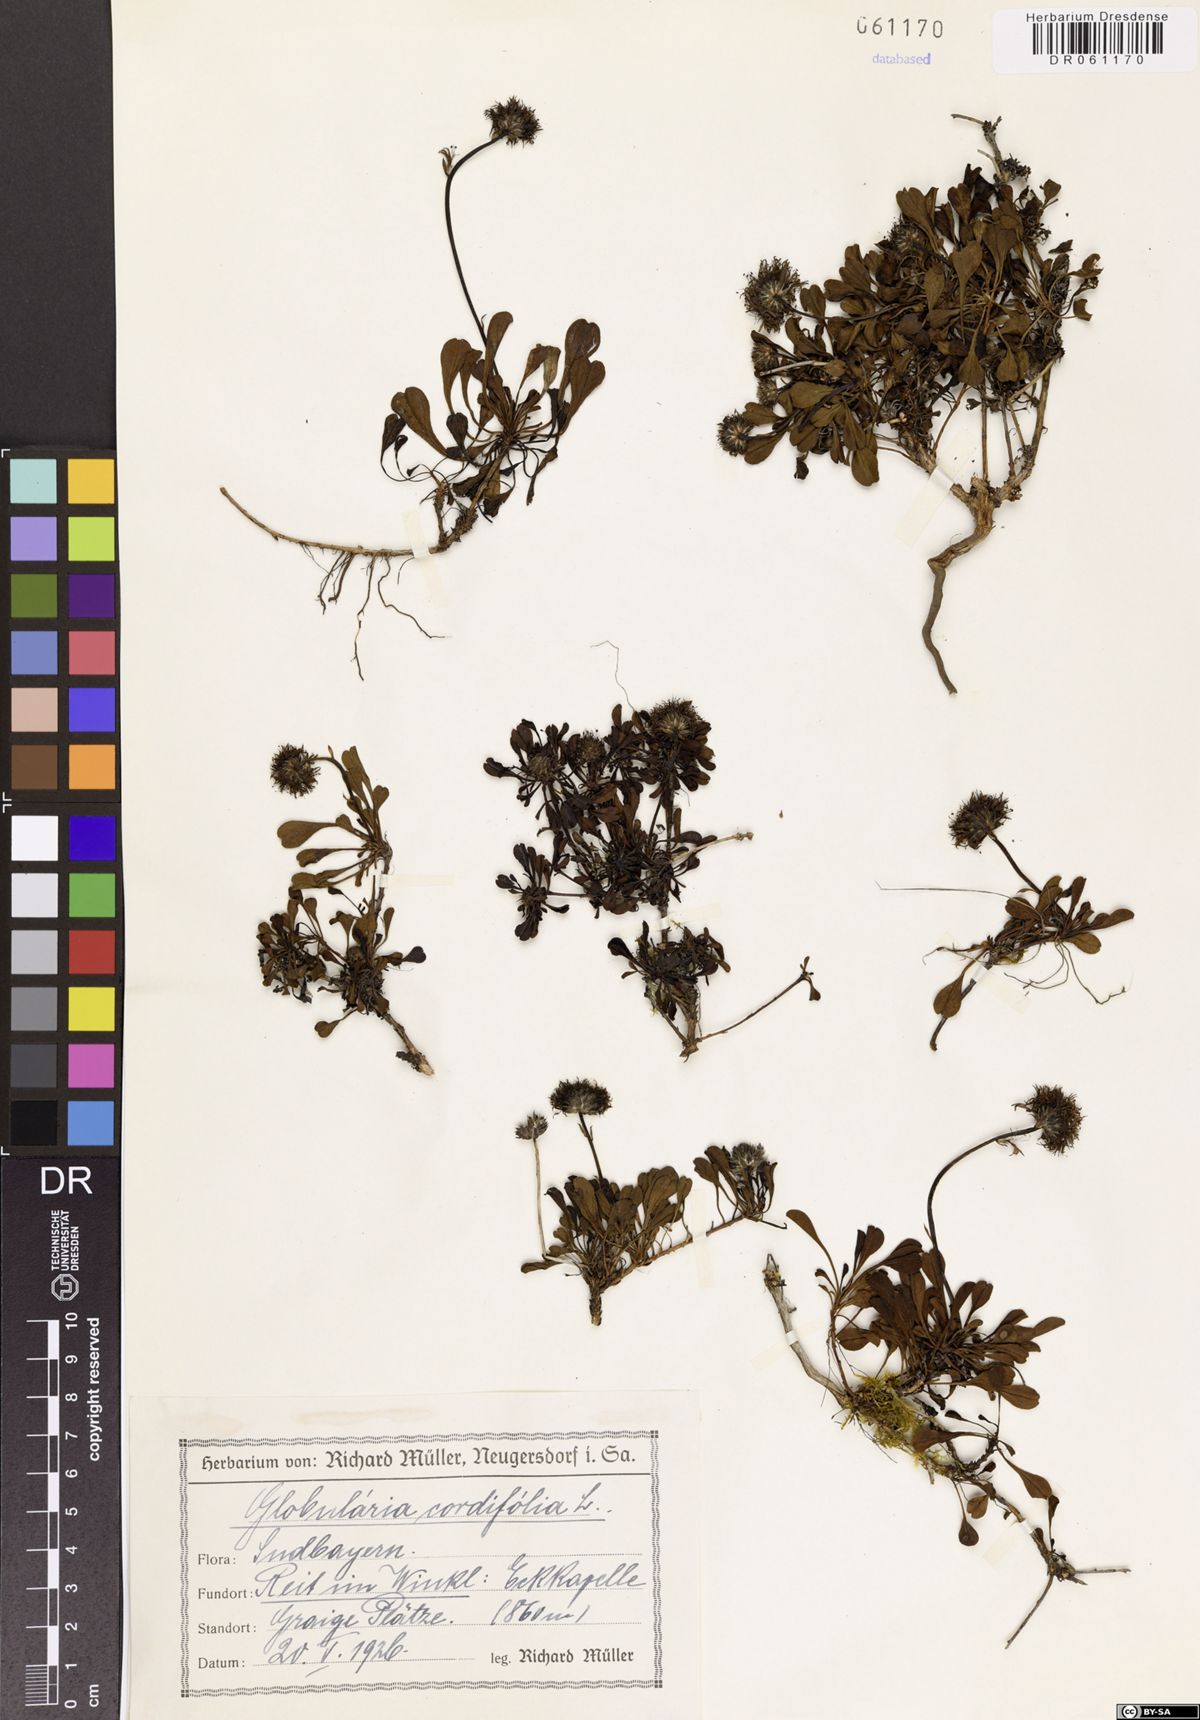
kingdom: Plantae
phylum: Tracheophyta
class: Magnoliopsida
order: Lamiales
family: Plantaginaceae
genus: Globularia
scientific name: Globularia cordifolia
